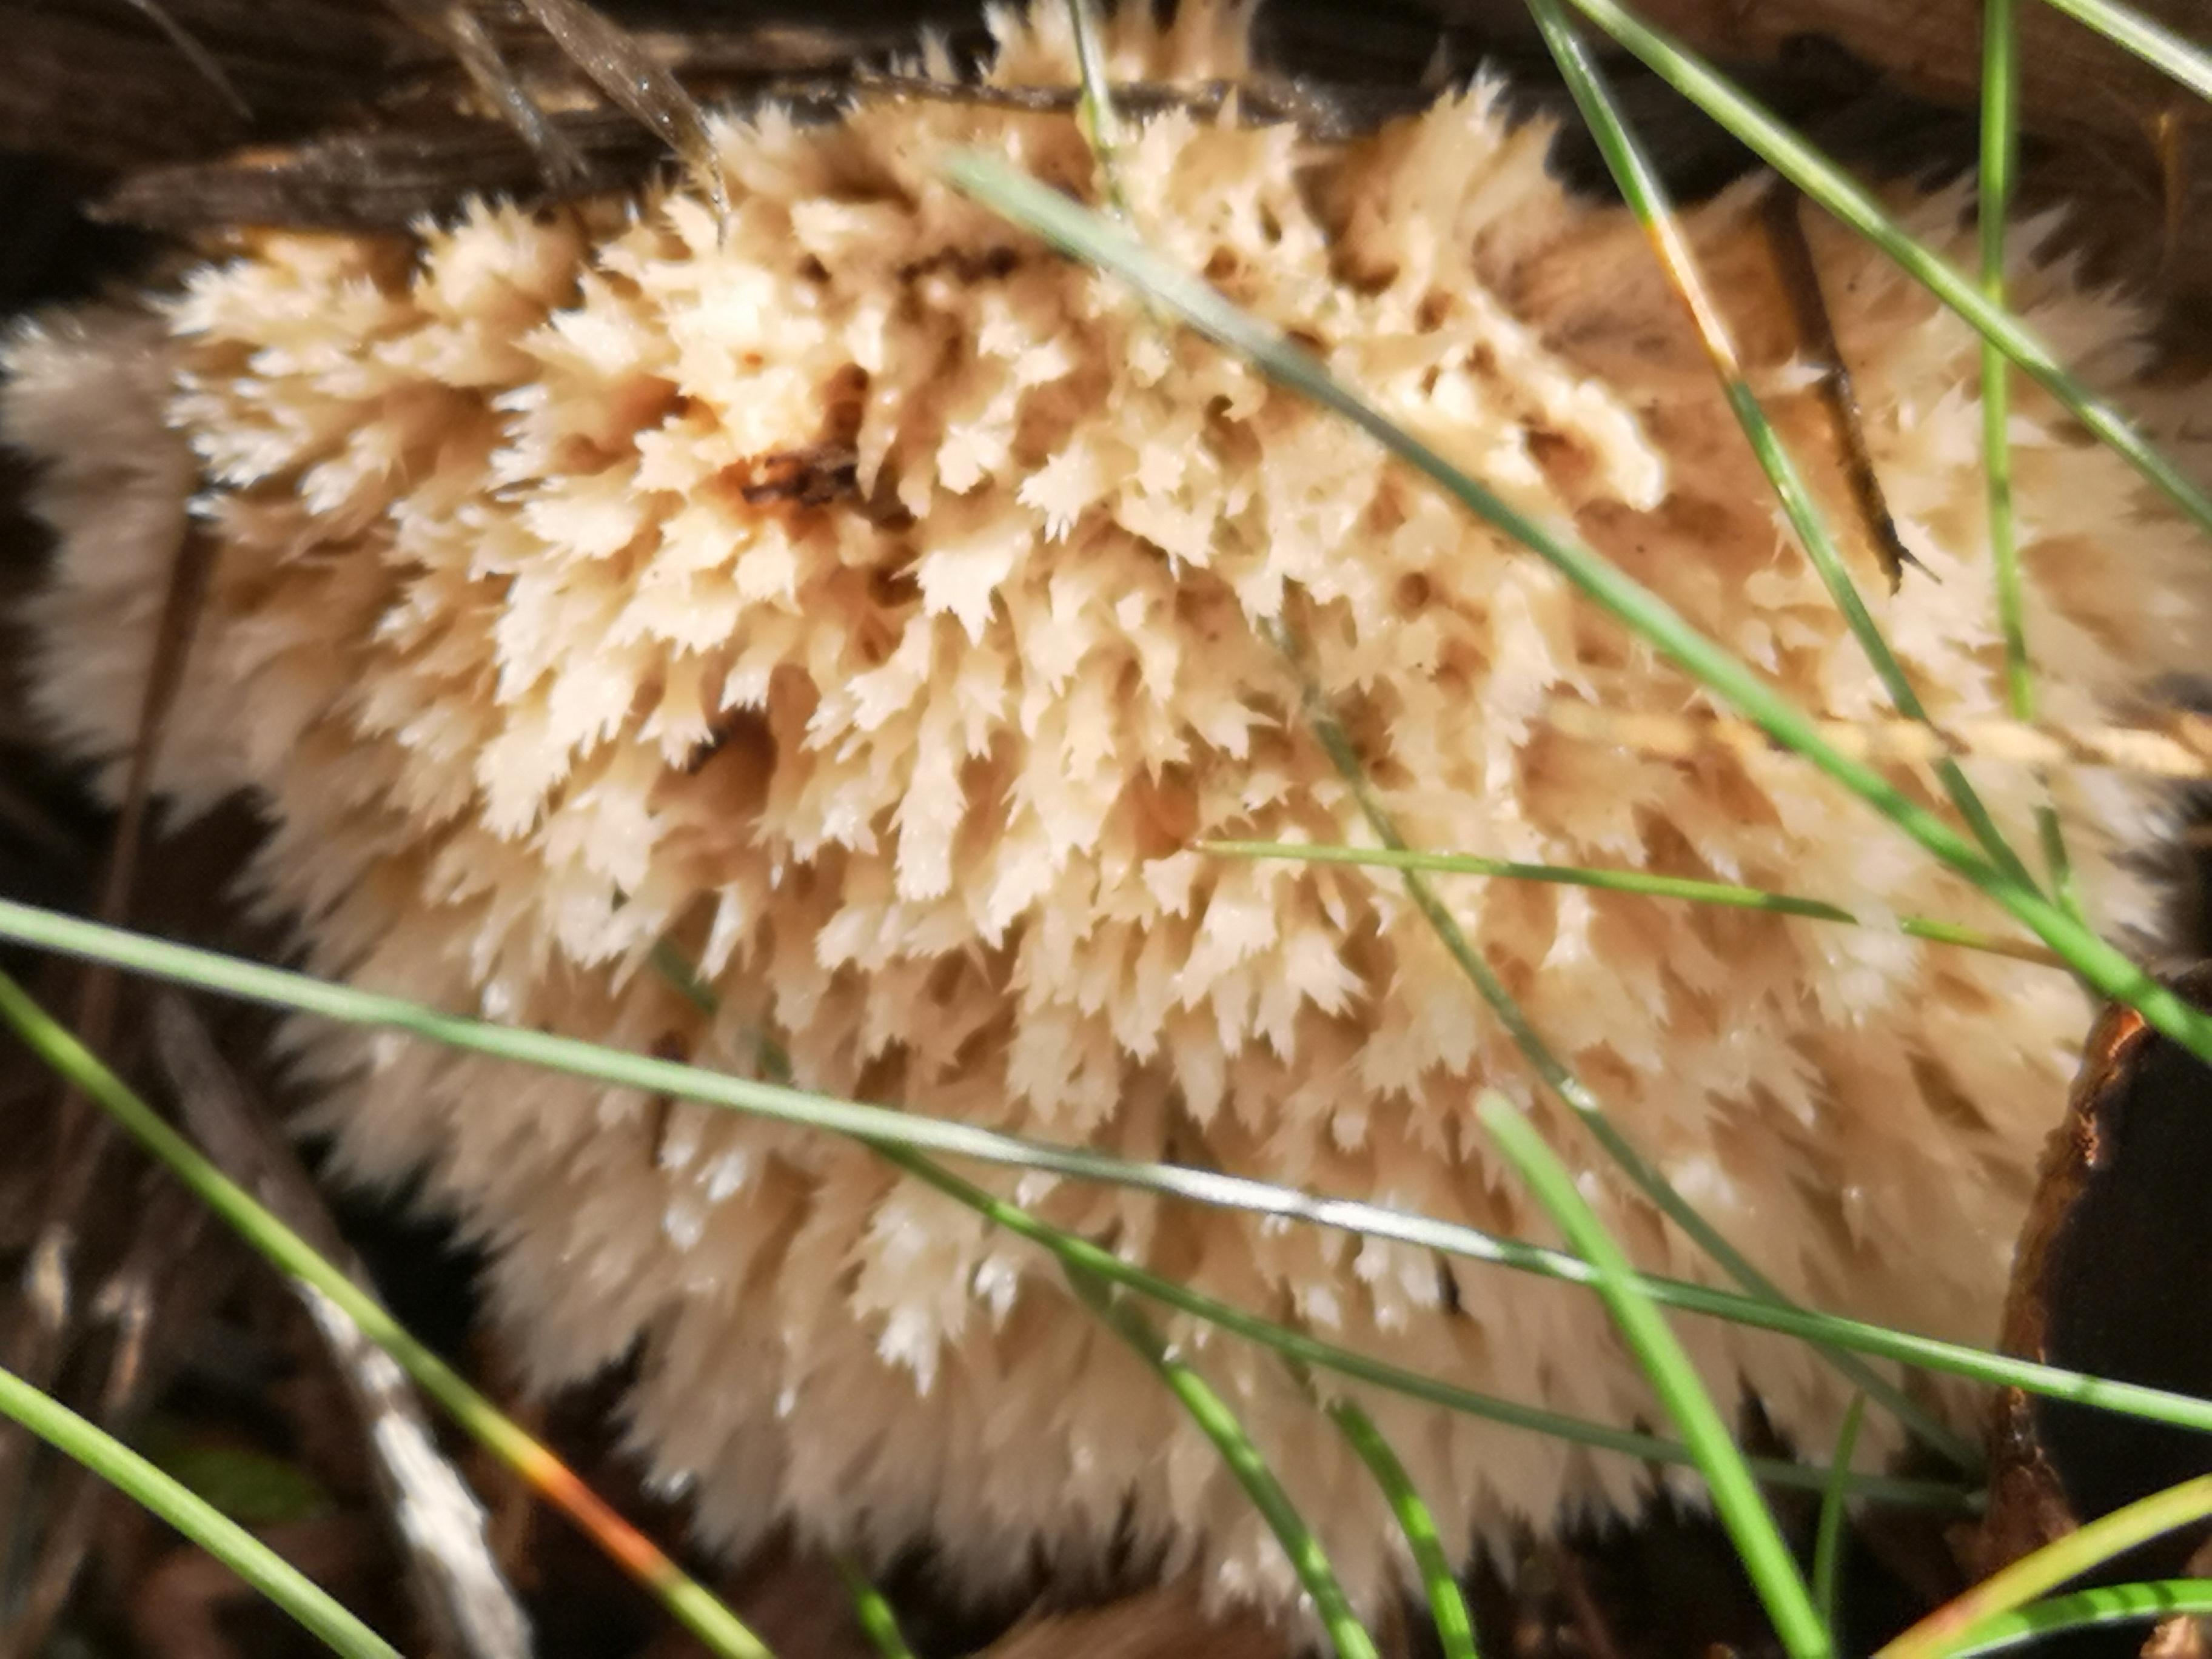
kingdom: Fungi
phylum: Basidiomycota
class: Agaricomycetes
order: Polyporales
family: Dacryobolaceae
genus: Postia
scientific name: Postia ptychogaster
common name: støvende kødporesvamp
